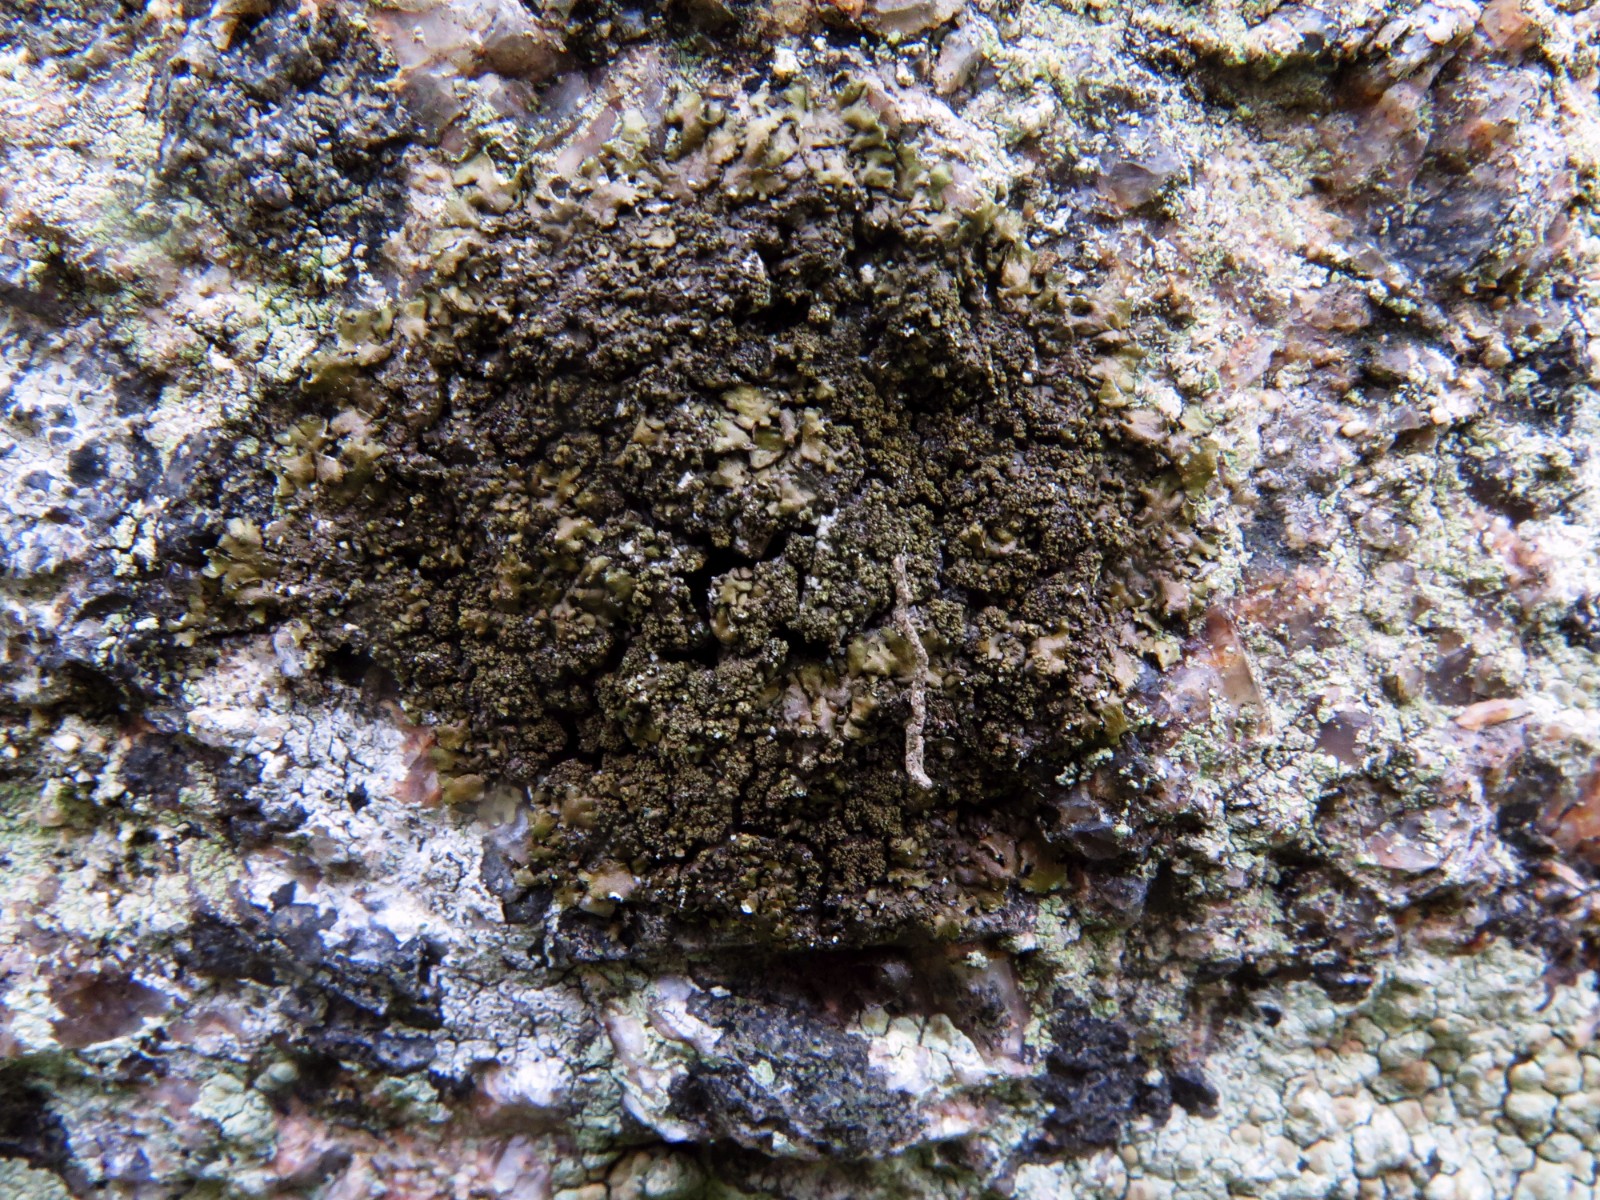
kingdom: Fungi
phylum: Ascomycota
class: Lecanoromycetes
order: Lecanorales
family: Parmeliaceae
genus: Xanthoparmelia
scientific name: Xanthoparmelia verruculifera
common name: småknoppet skållav
